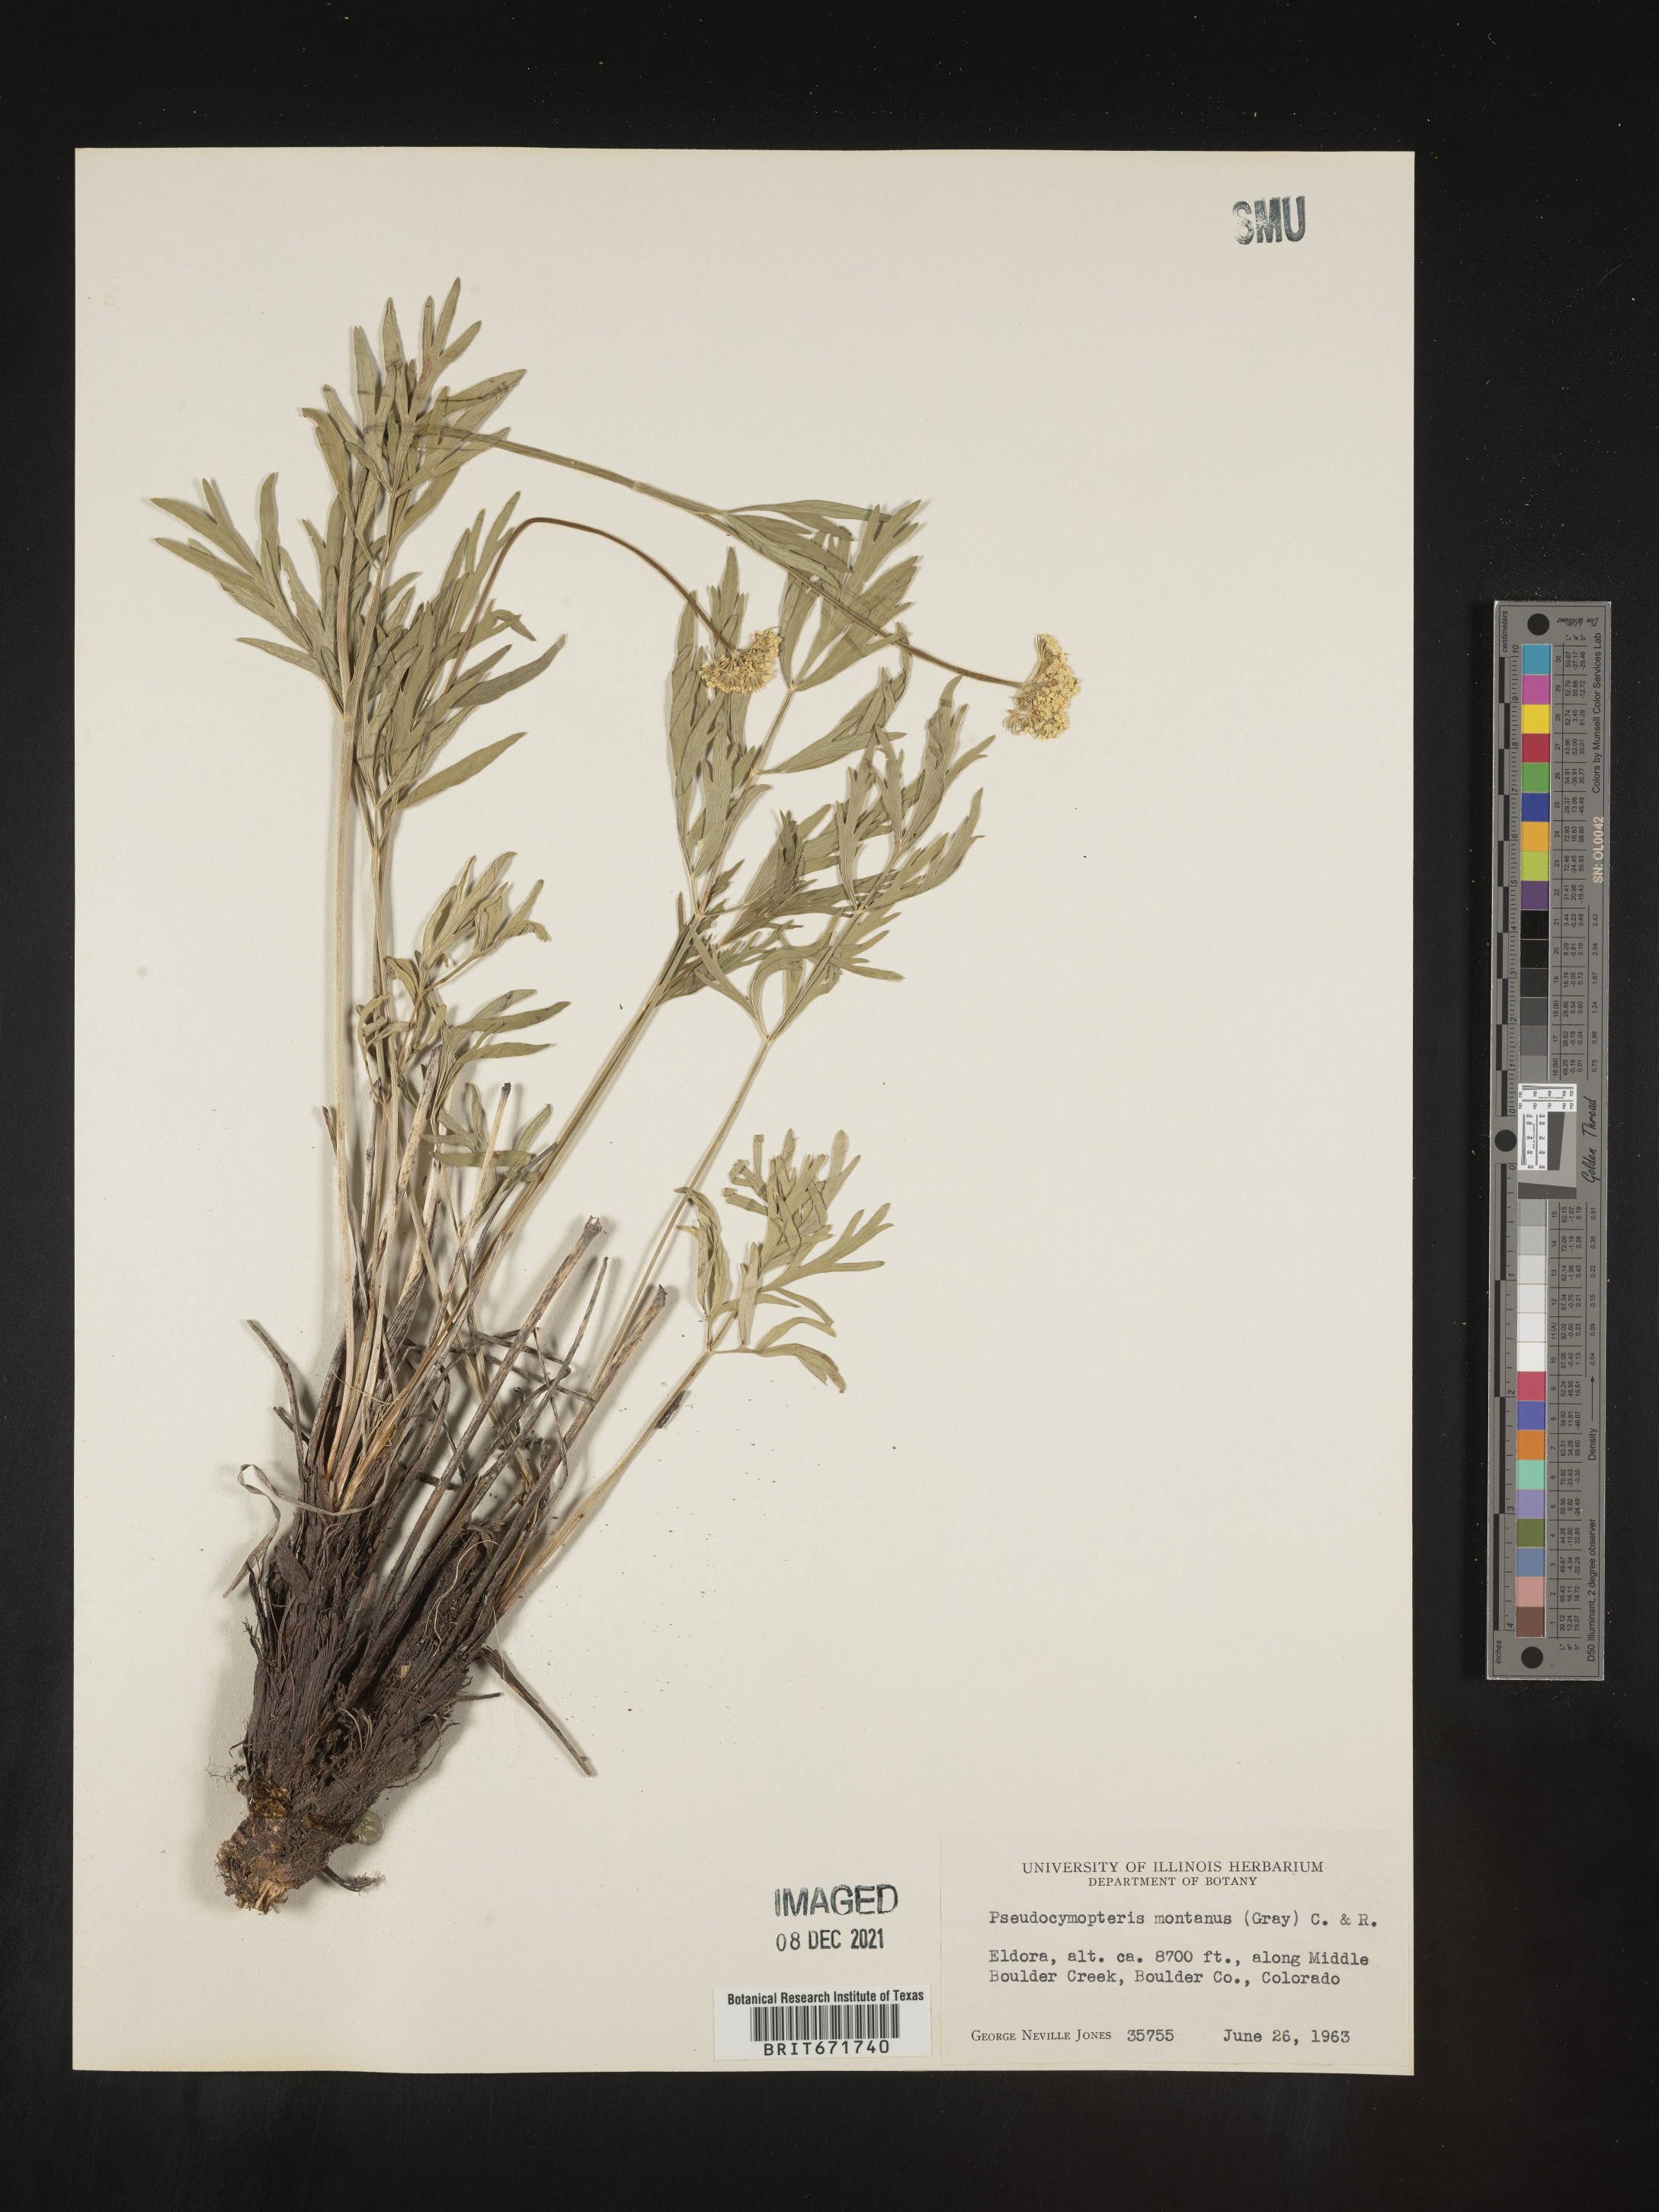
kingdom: Plantae
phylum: Tracheophyta
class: Magnoliopsida
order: Apiales
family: Apiaceae
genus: Cymopterus
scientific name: Cymopterus lemmonii
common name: Lemmon's spring-parsley
